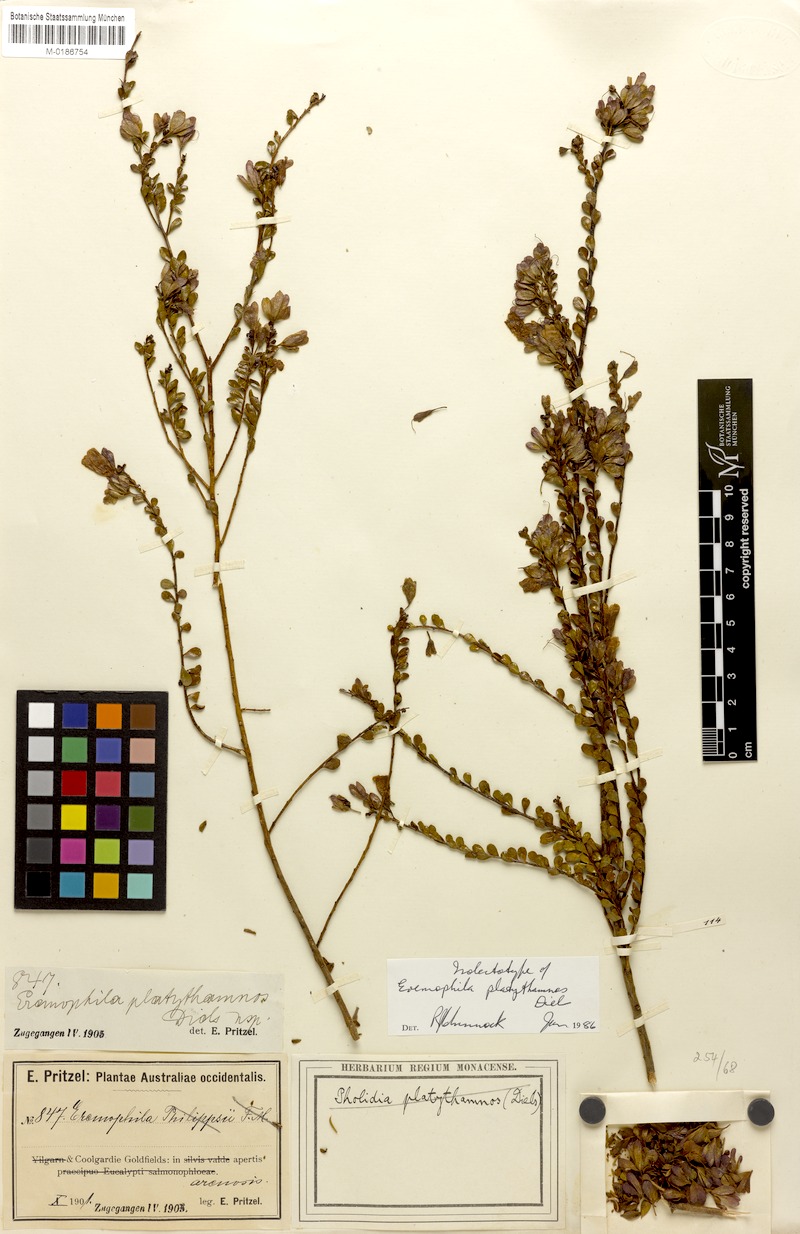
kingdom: Plantae
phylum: Tracheophyta
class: Magnoliopsida
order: Lamiales
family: Scrophulariaceae
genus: Eremophila
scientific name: Eremophila platythamnos
